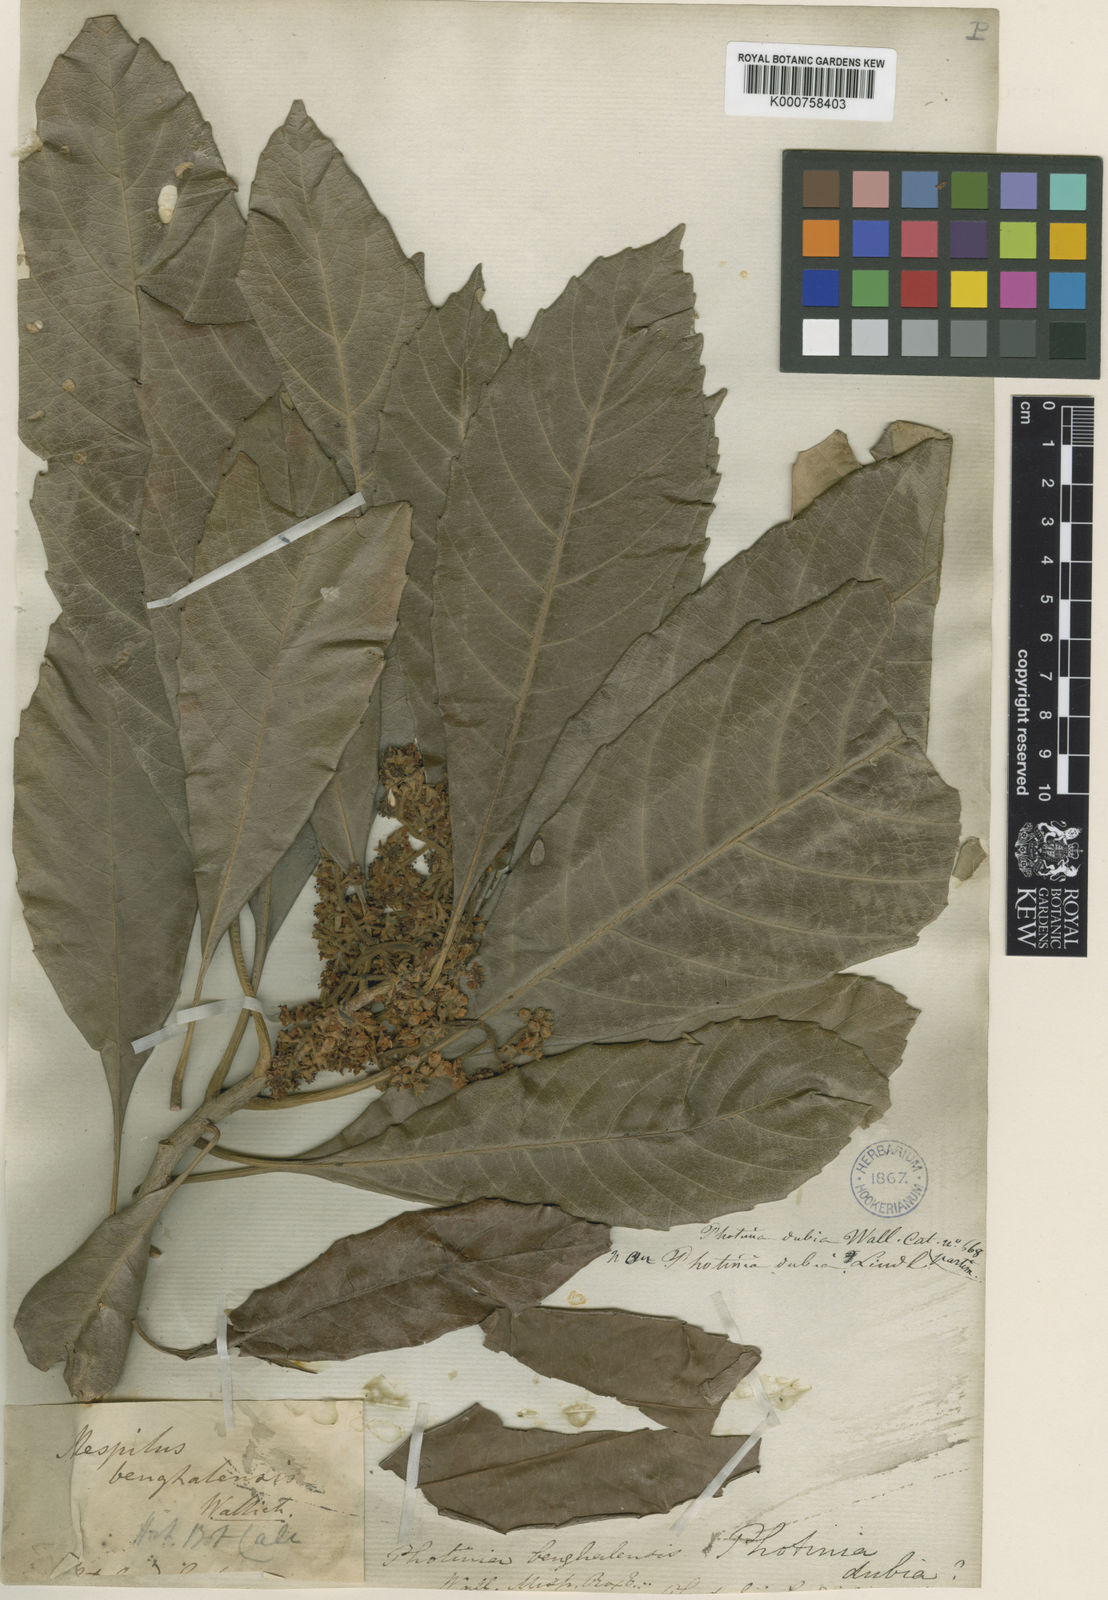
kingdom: Plantae
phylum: Tracheophyta
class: Magnoliopsida
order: Rosales
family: Rosaceae
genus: Rhaphiolepis
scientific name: Rhaphiolepis
